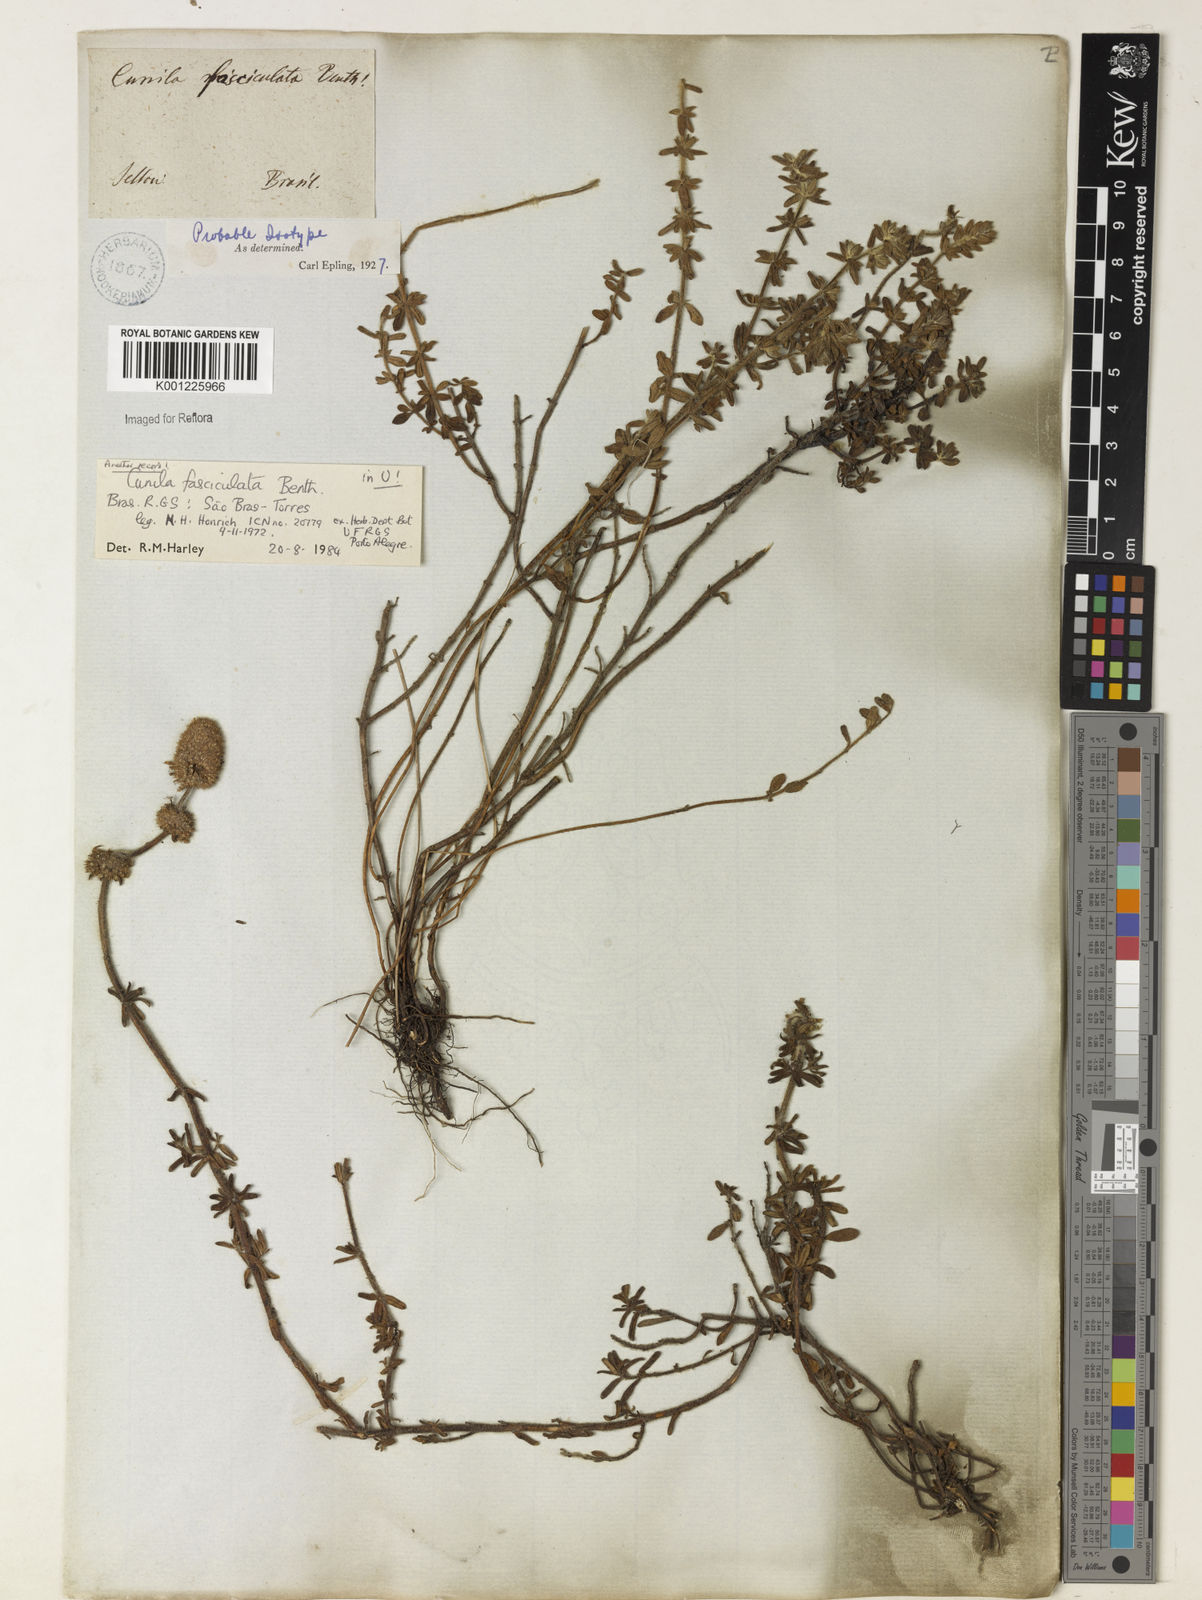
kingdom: Plantae
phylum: Tracheophyta
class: Magnoliopsida
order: Lamiales
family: Lamiaceae
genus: Cunila
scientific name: Cunila fasciculata
